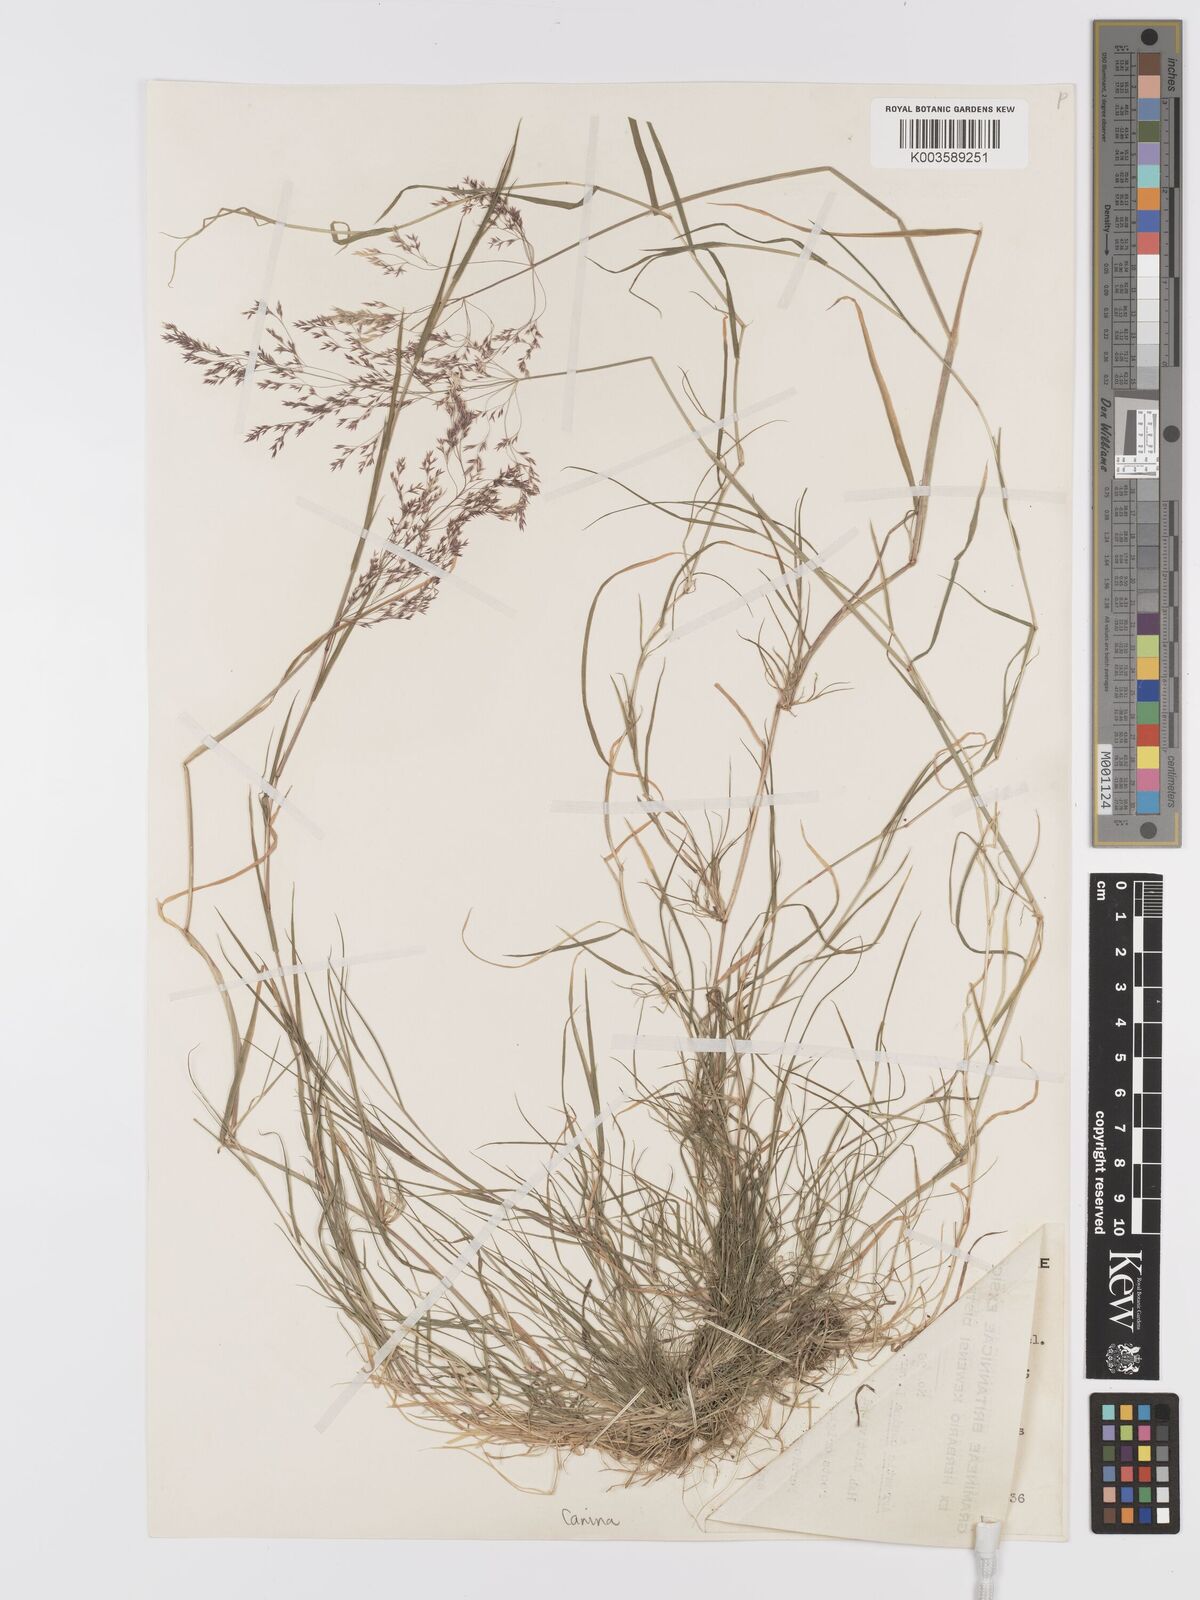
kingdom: Plantae
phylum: Tracheophyta
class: Liliopsida
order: Poales
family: Poaceae
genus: Agrostis
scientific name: Agrostis canina
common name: Velvet bent
